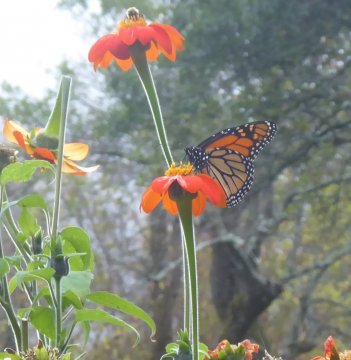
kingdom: Animalia
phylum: Arthropoda
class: Insecta
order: Lepidoptera
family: Nymphalidae
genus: Danaus
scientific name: Danaus plexippus
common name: Monarch
